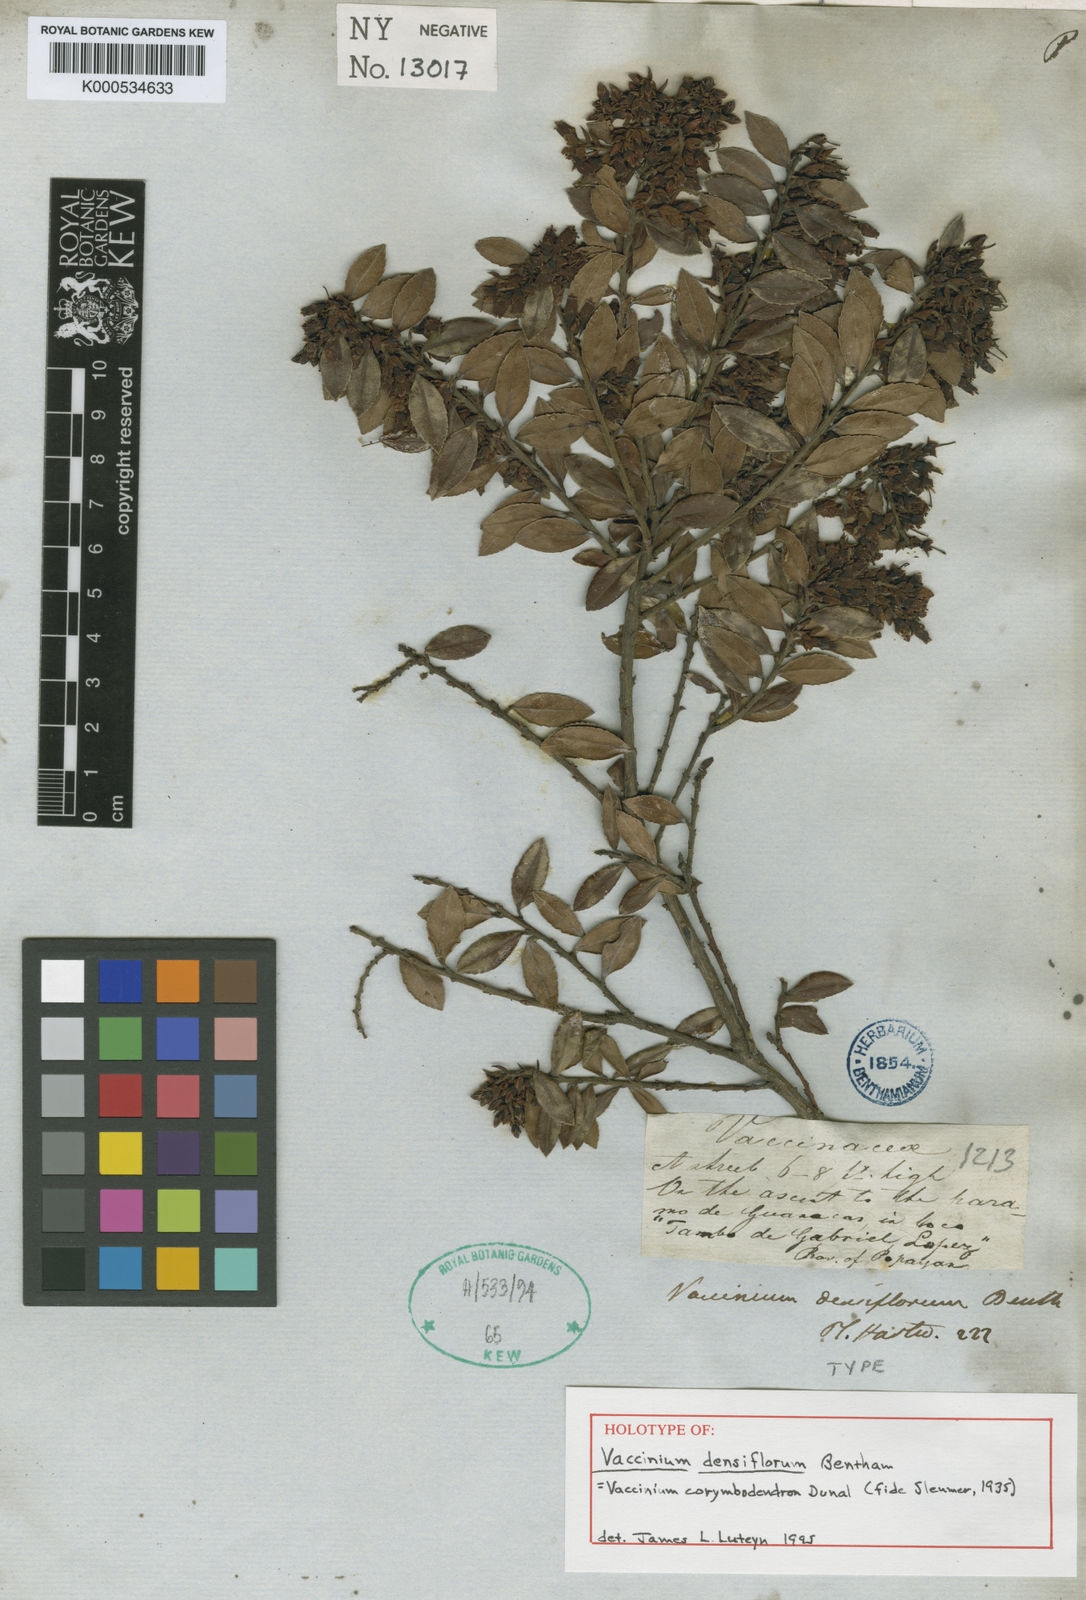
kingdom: Plantae
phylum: Tracheophyta
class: Magnoliopsida
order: Ericales
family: Ericaceae
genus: Vaccinium
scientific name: Vaccinium corymbodendron
